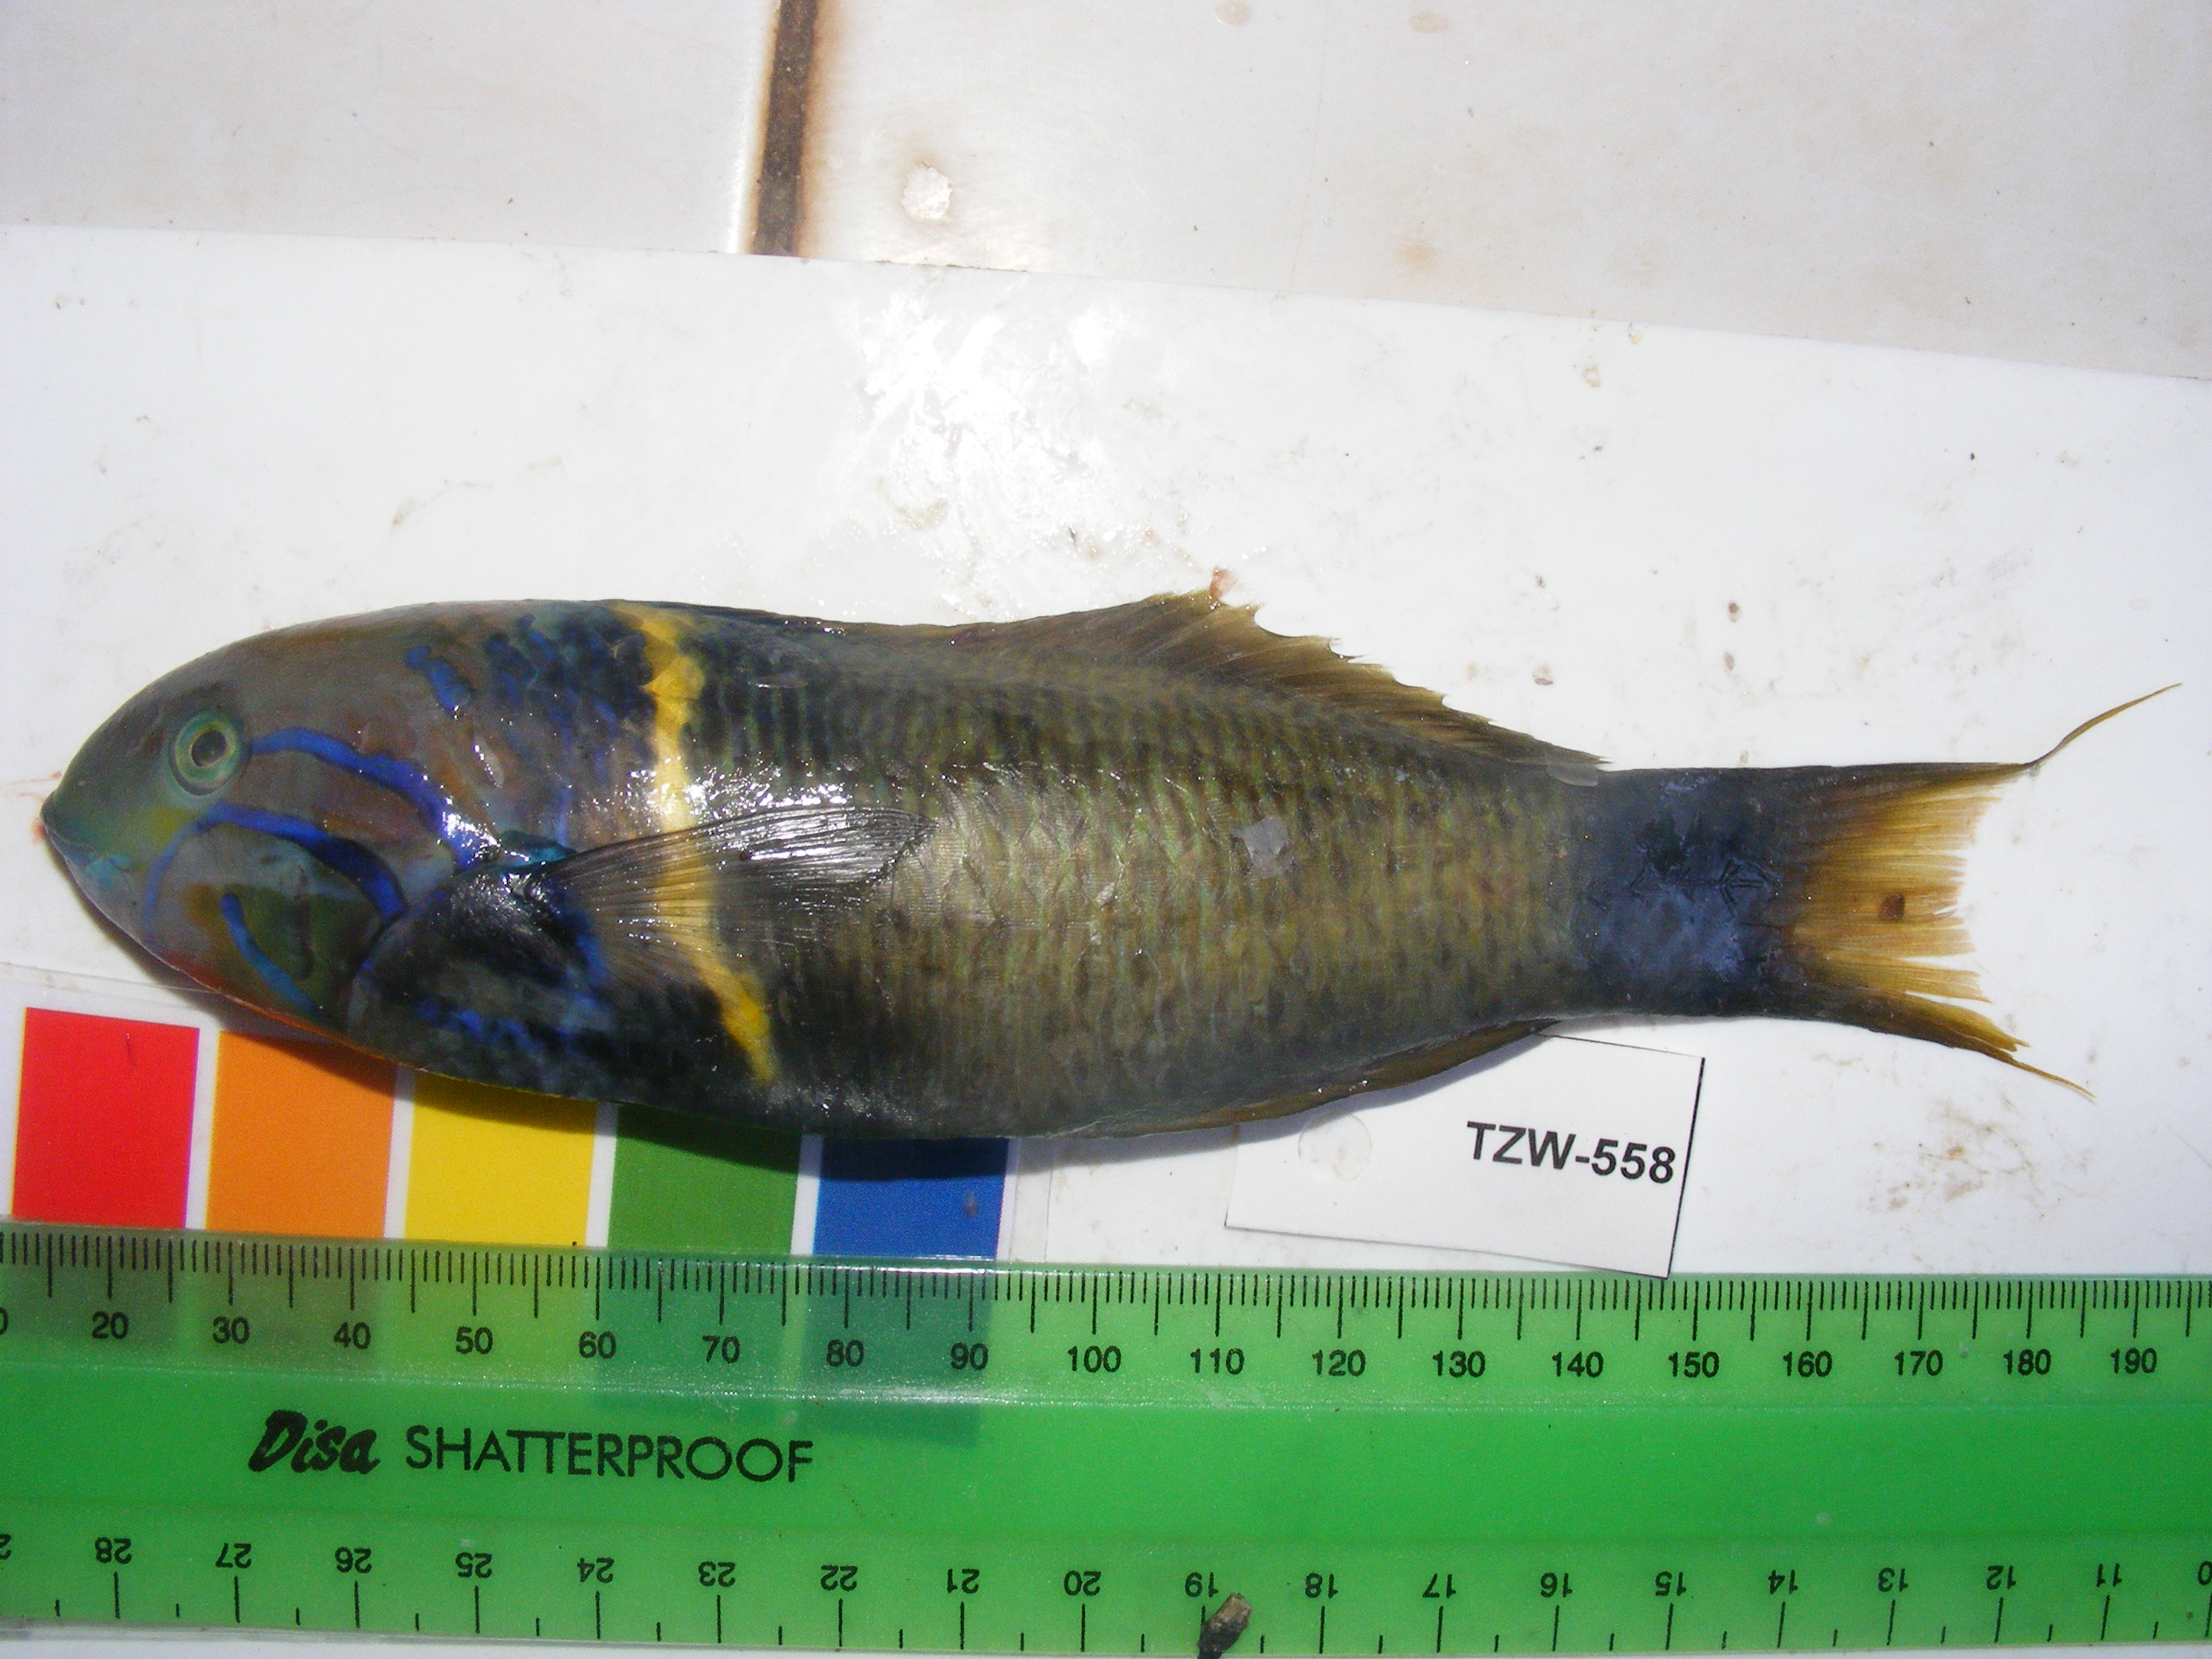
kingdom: Animalia
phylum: Chordata
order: Perciformes
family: Labridae
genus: Thalassoma
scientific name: Thalassoma hebraicum
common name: Goldbar wrasse
